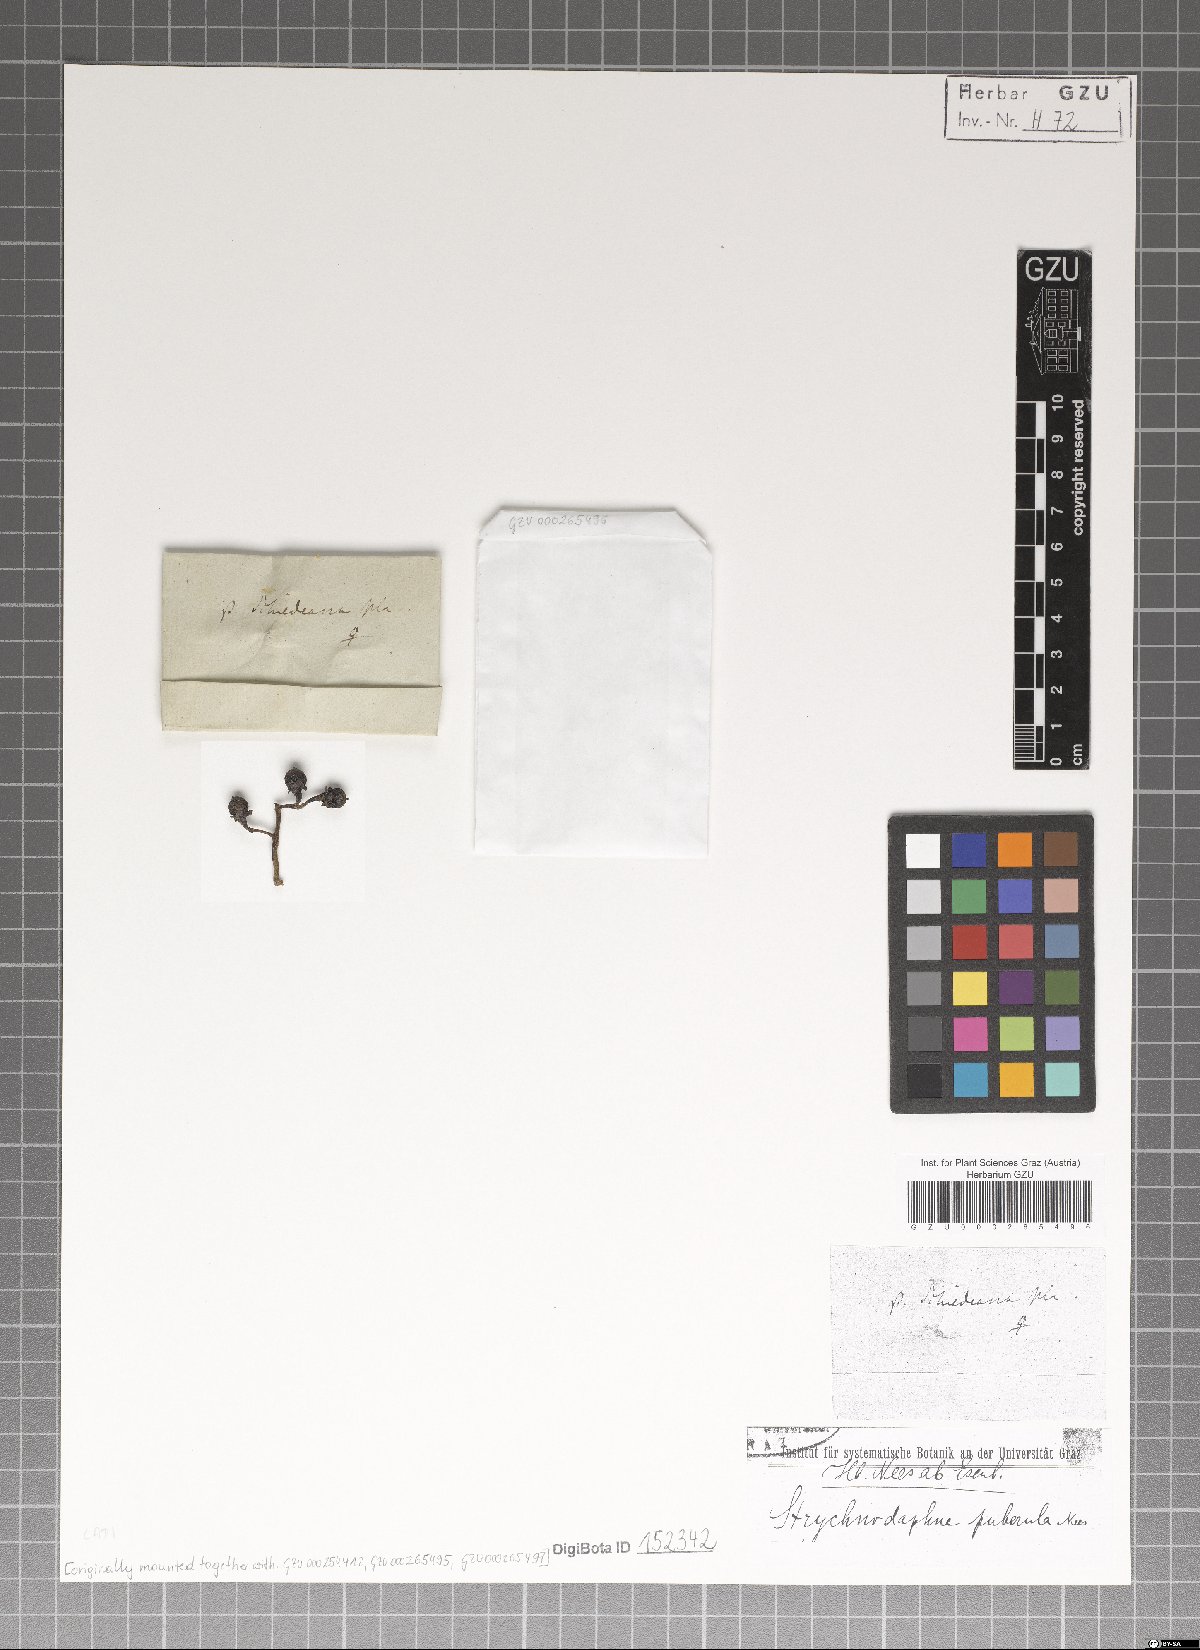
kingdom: Plantae
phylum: Tracheophyta
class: Magnoliopsida
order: Laurales
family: Lauraceae
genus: Ocotea
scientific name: Ocotea puberula
